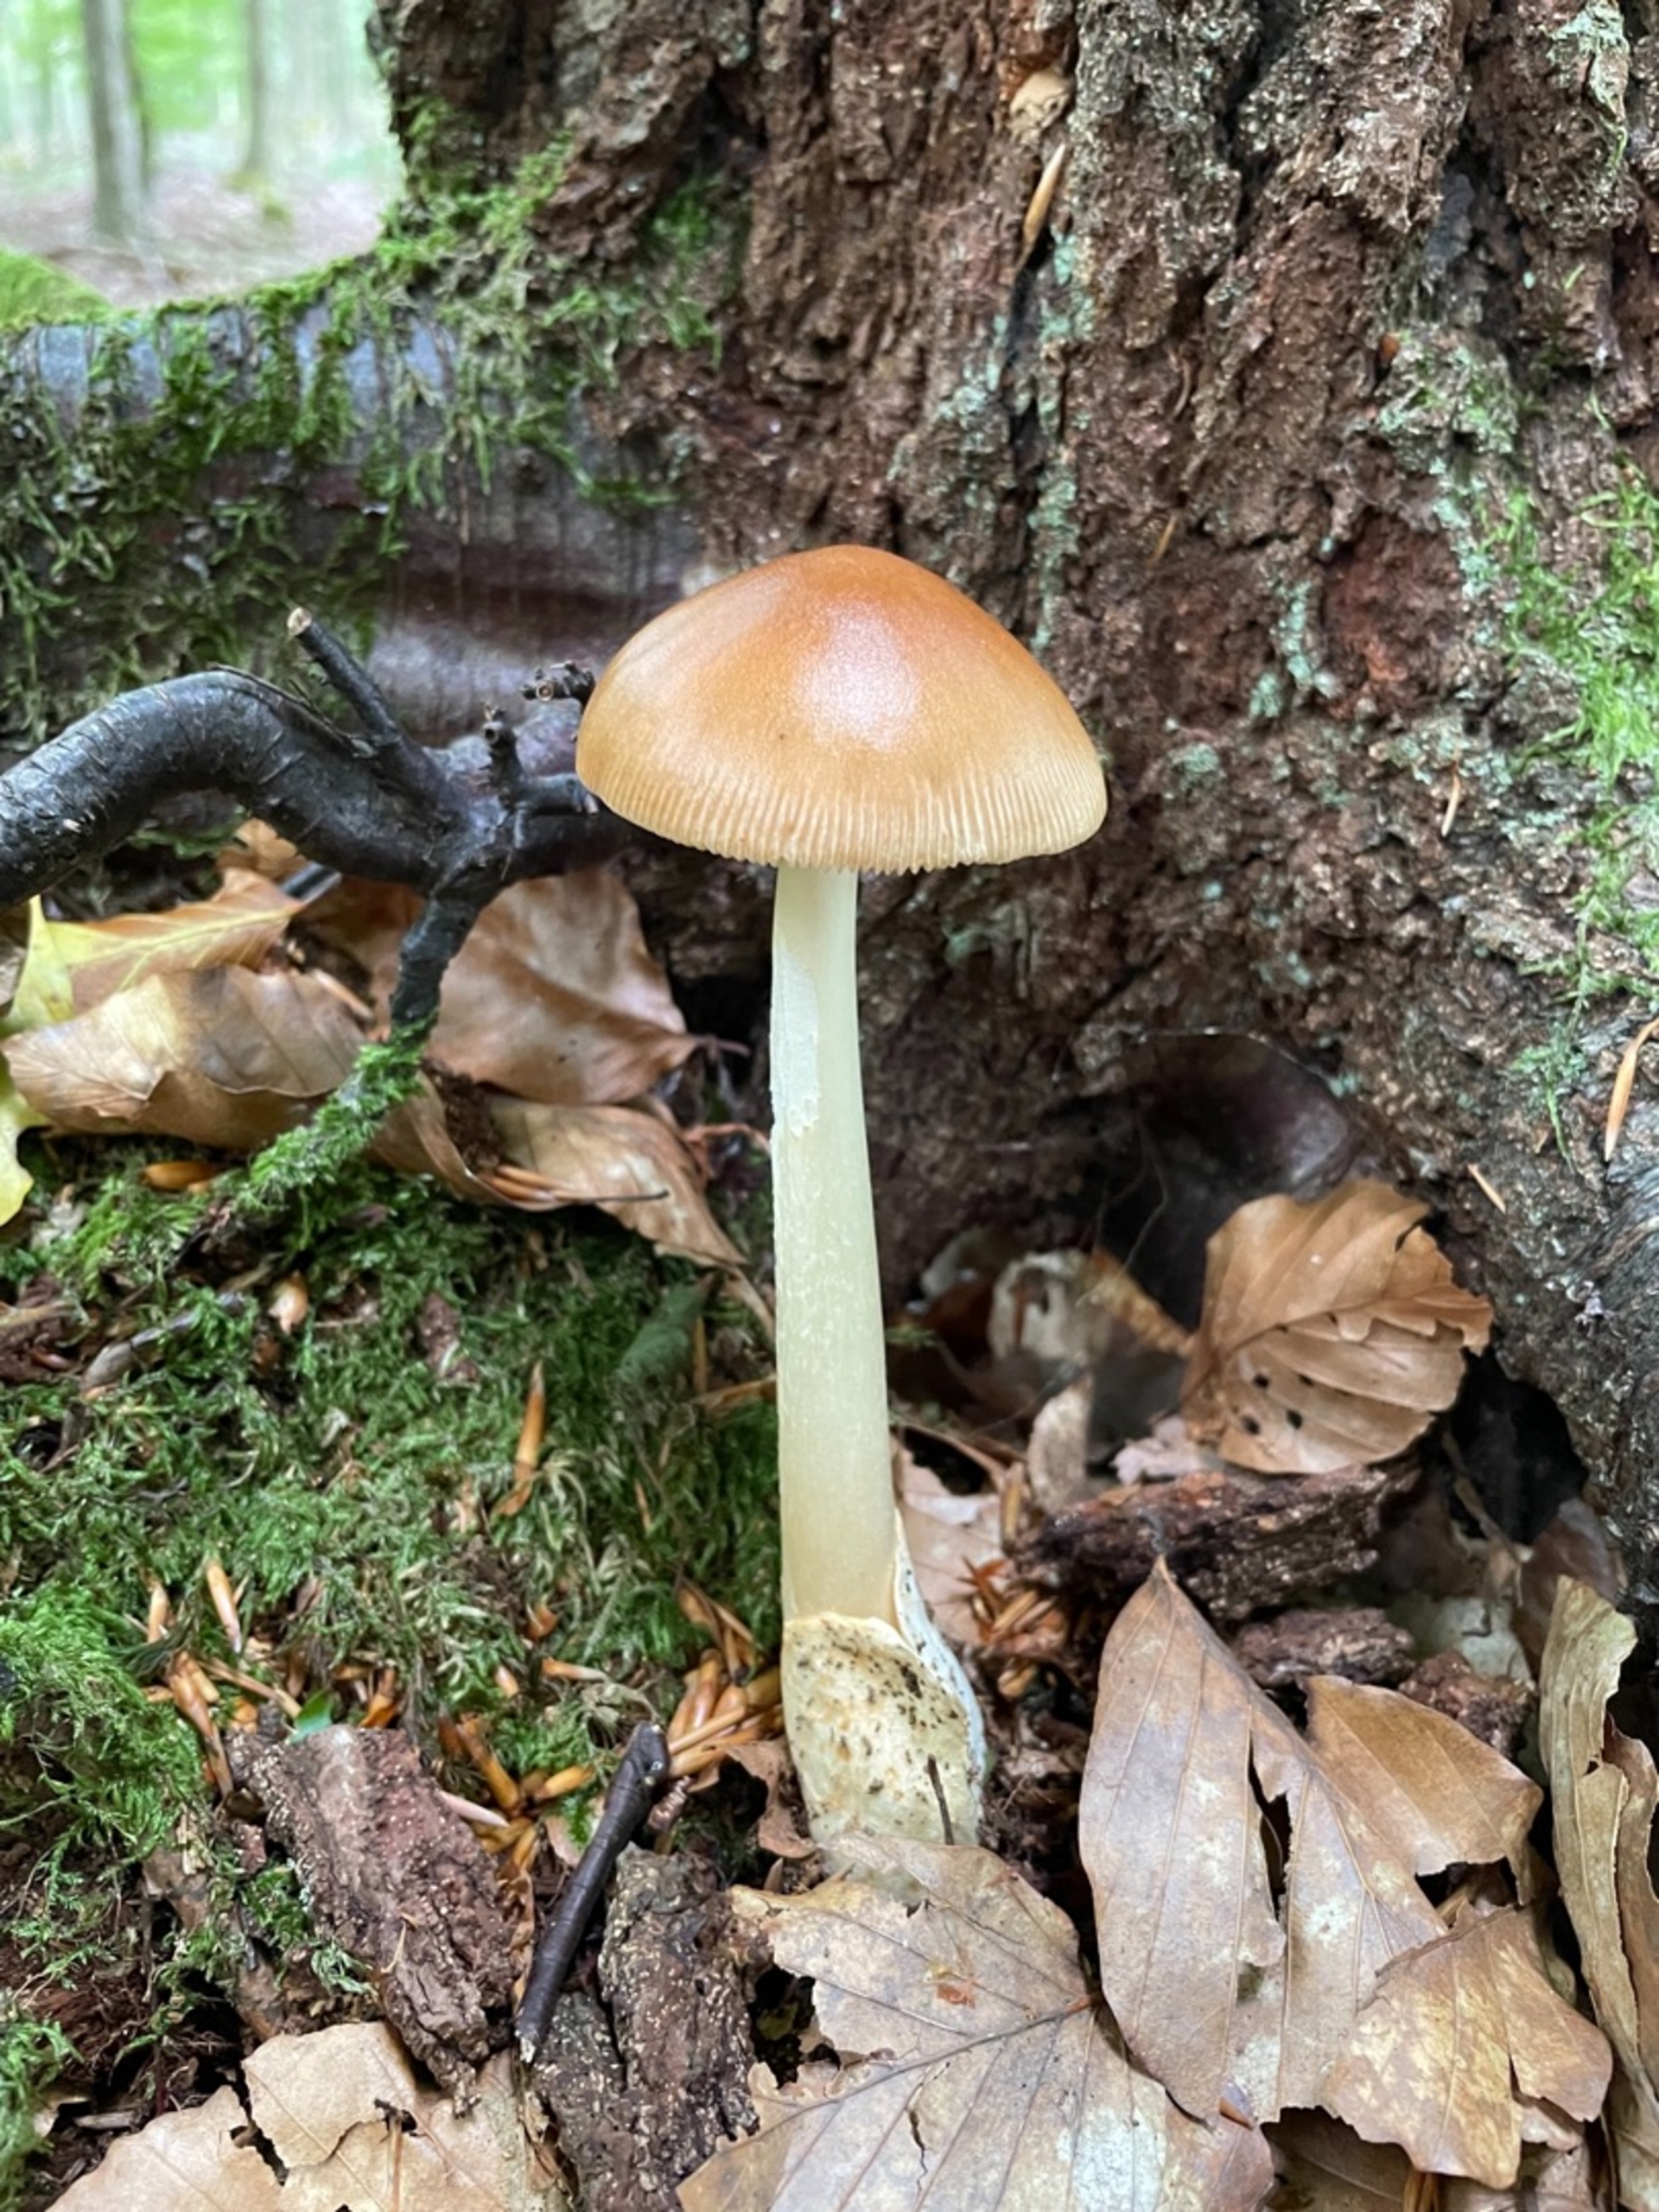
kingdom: Fungi
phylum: Basidiomycota
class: Agaricomycetes
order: Agaricales
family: Amanitaceae
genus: Amanita
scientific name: Amanita fulva
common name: Brun kam-fluesvamp
